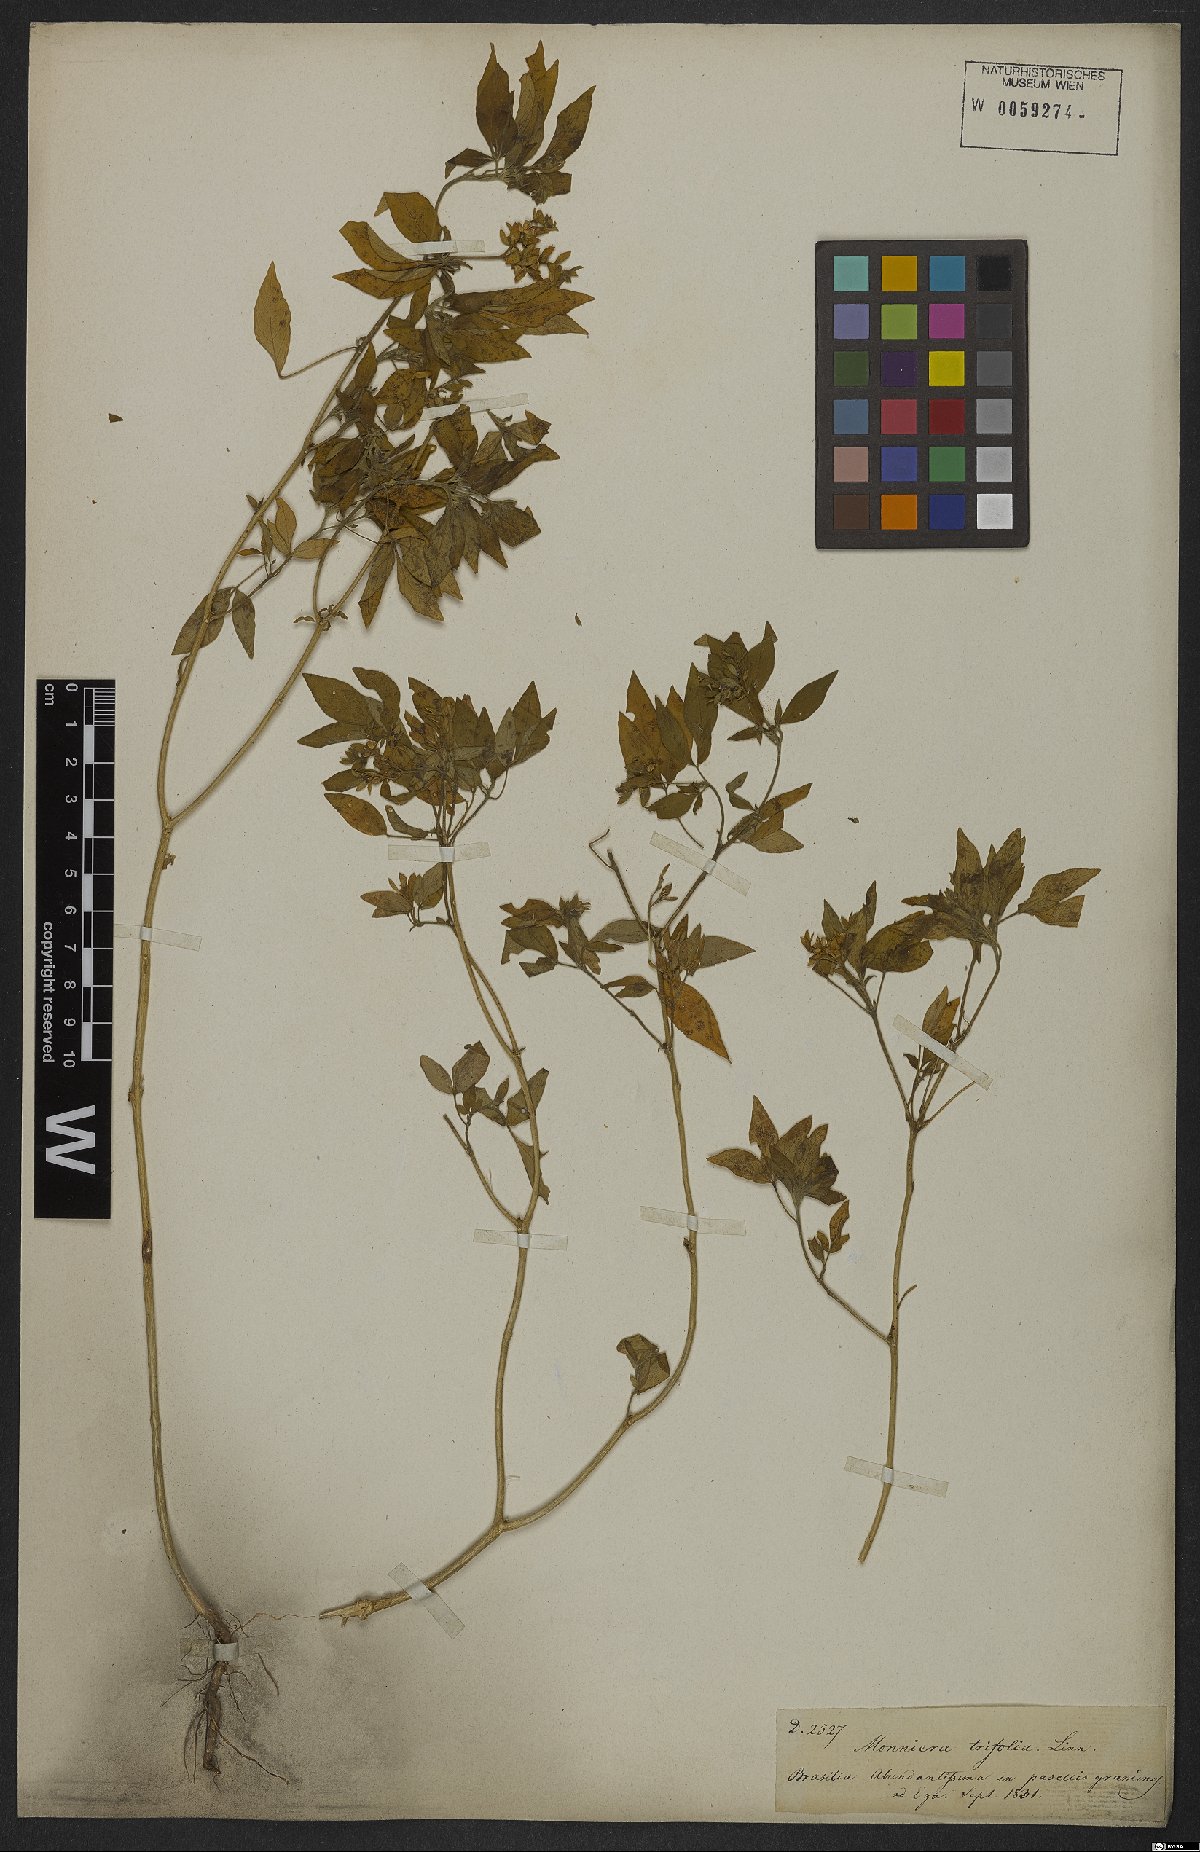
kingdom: Plantae
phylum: Tracheophyta
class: Magnoliopsida
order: Sapindales
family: Rutaceae
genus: Ertela
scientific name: Ertela trifolia
